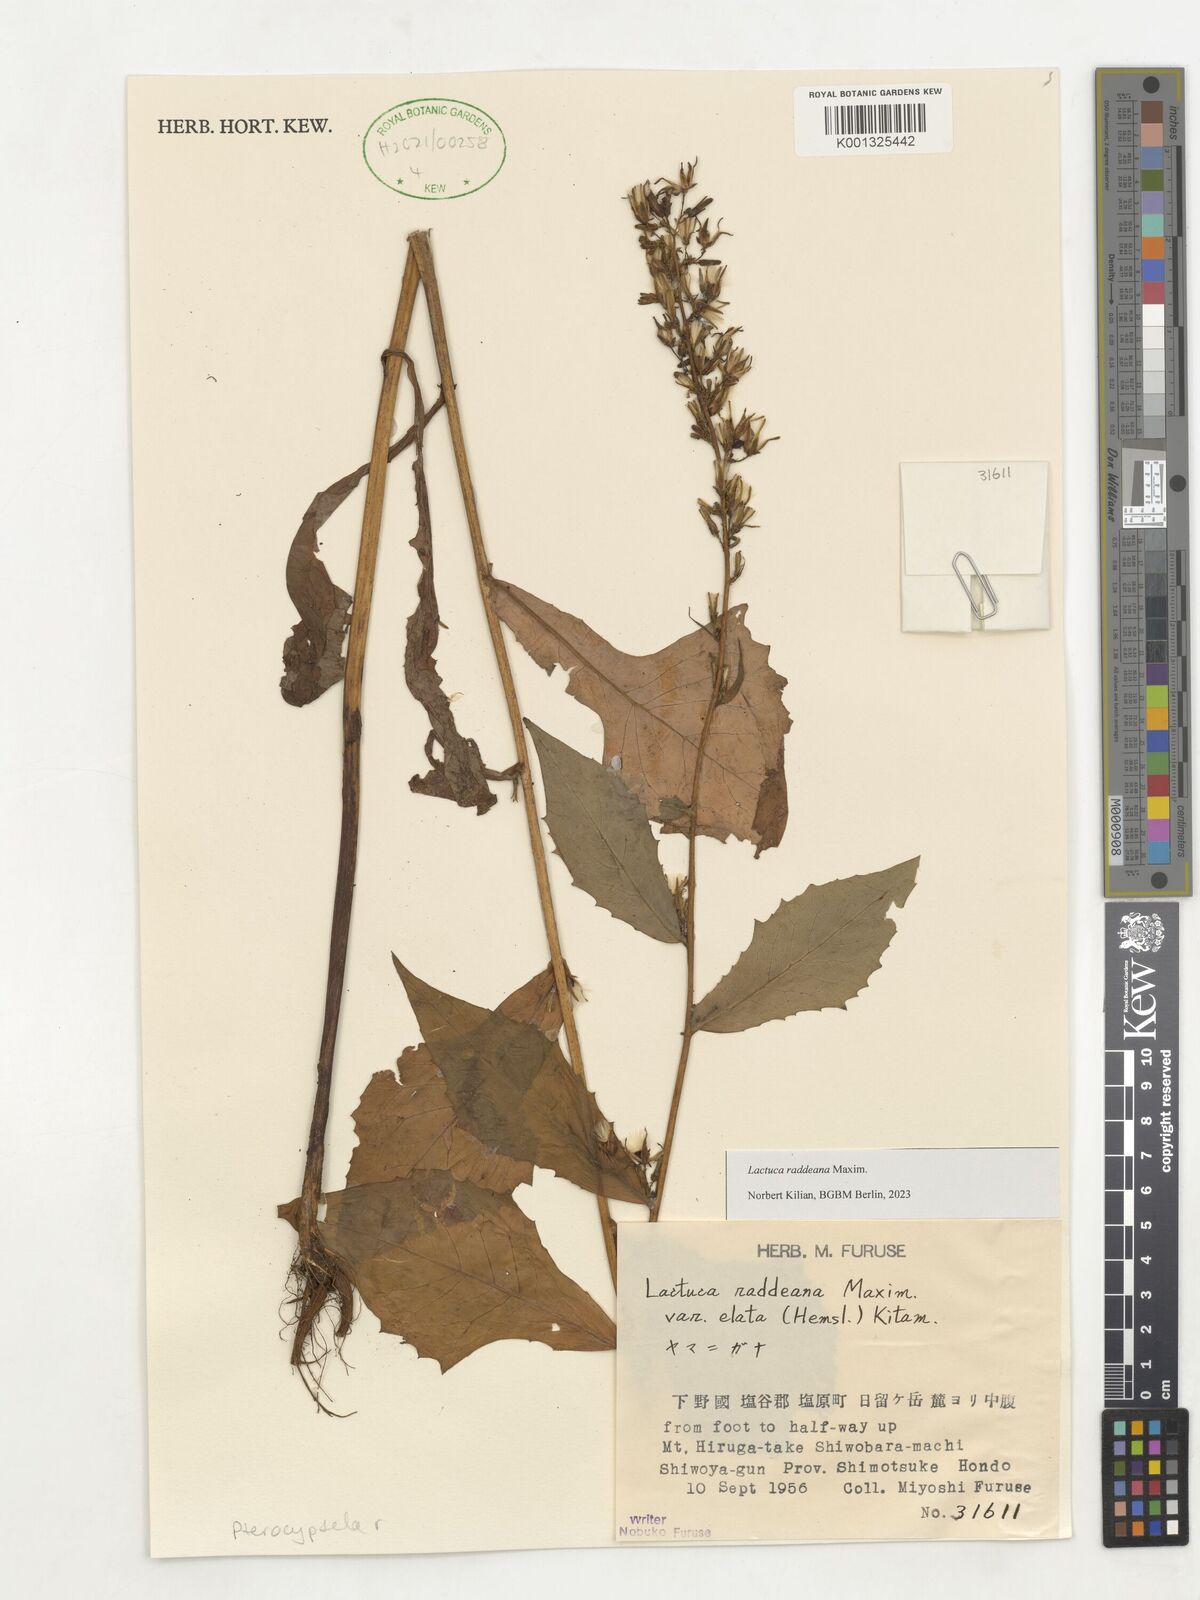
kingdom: Plantae
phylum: Tracheophyta
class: Magnoliopsida
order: Asterales
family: Asteraceae
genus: Lactuca
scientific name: Lactuca raddeana
